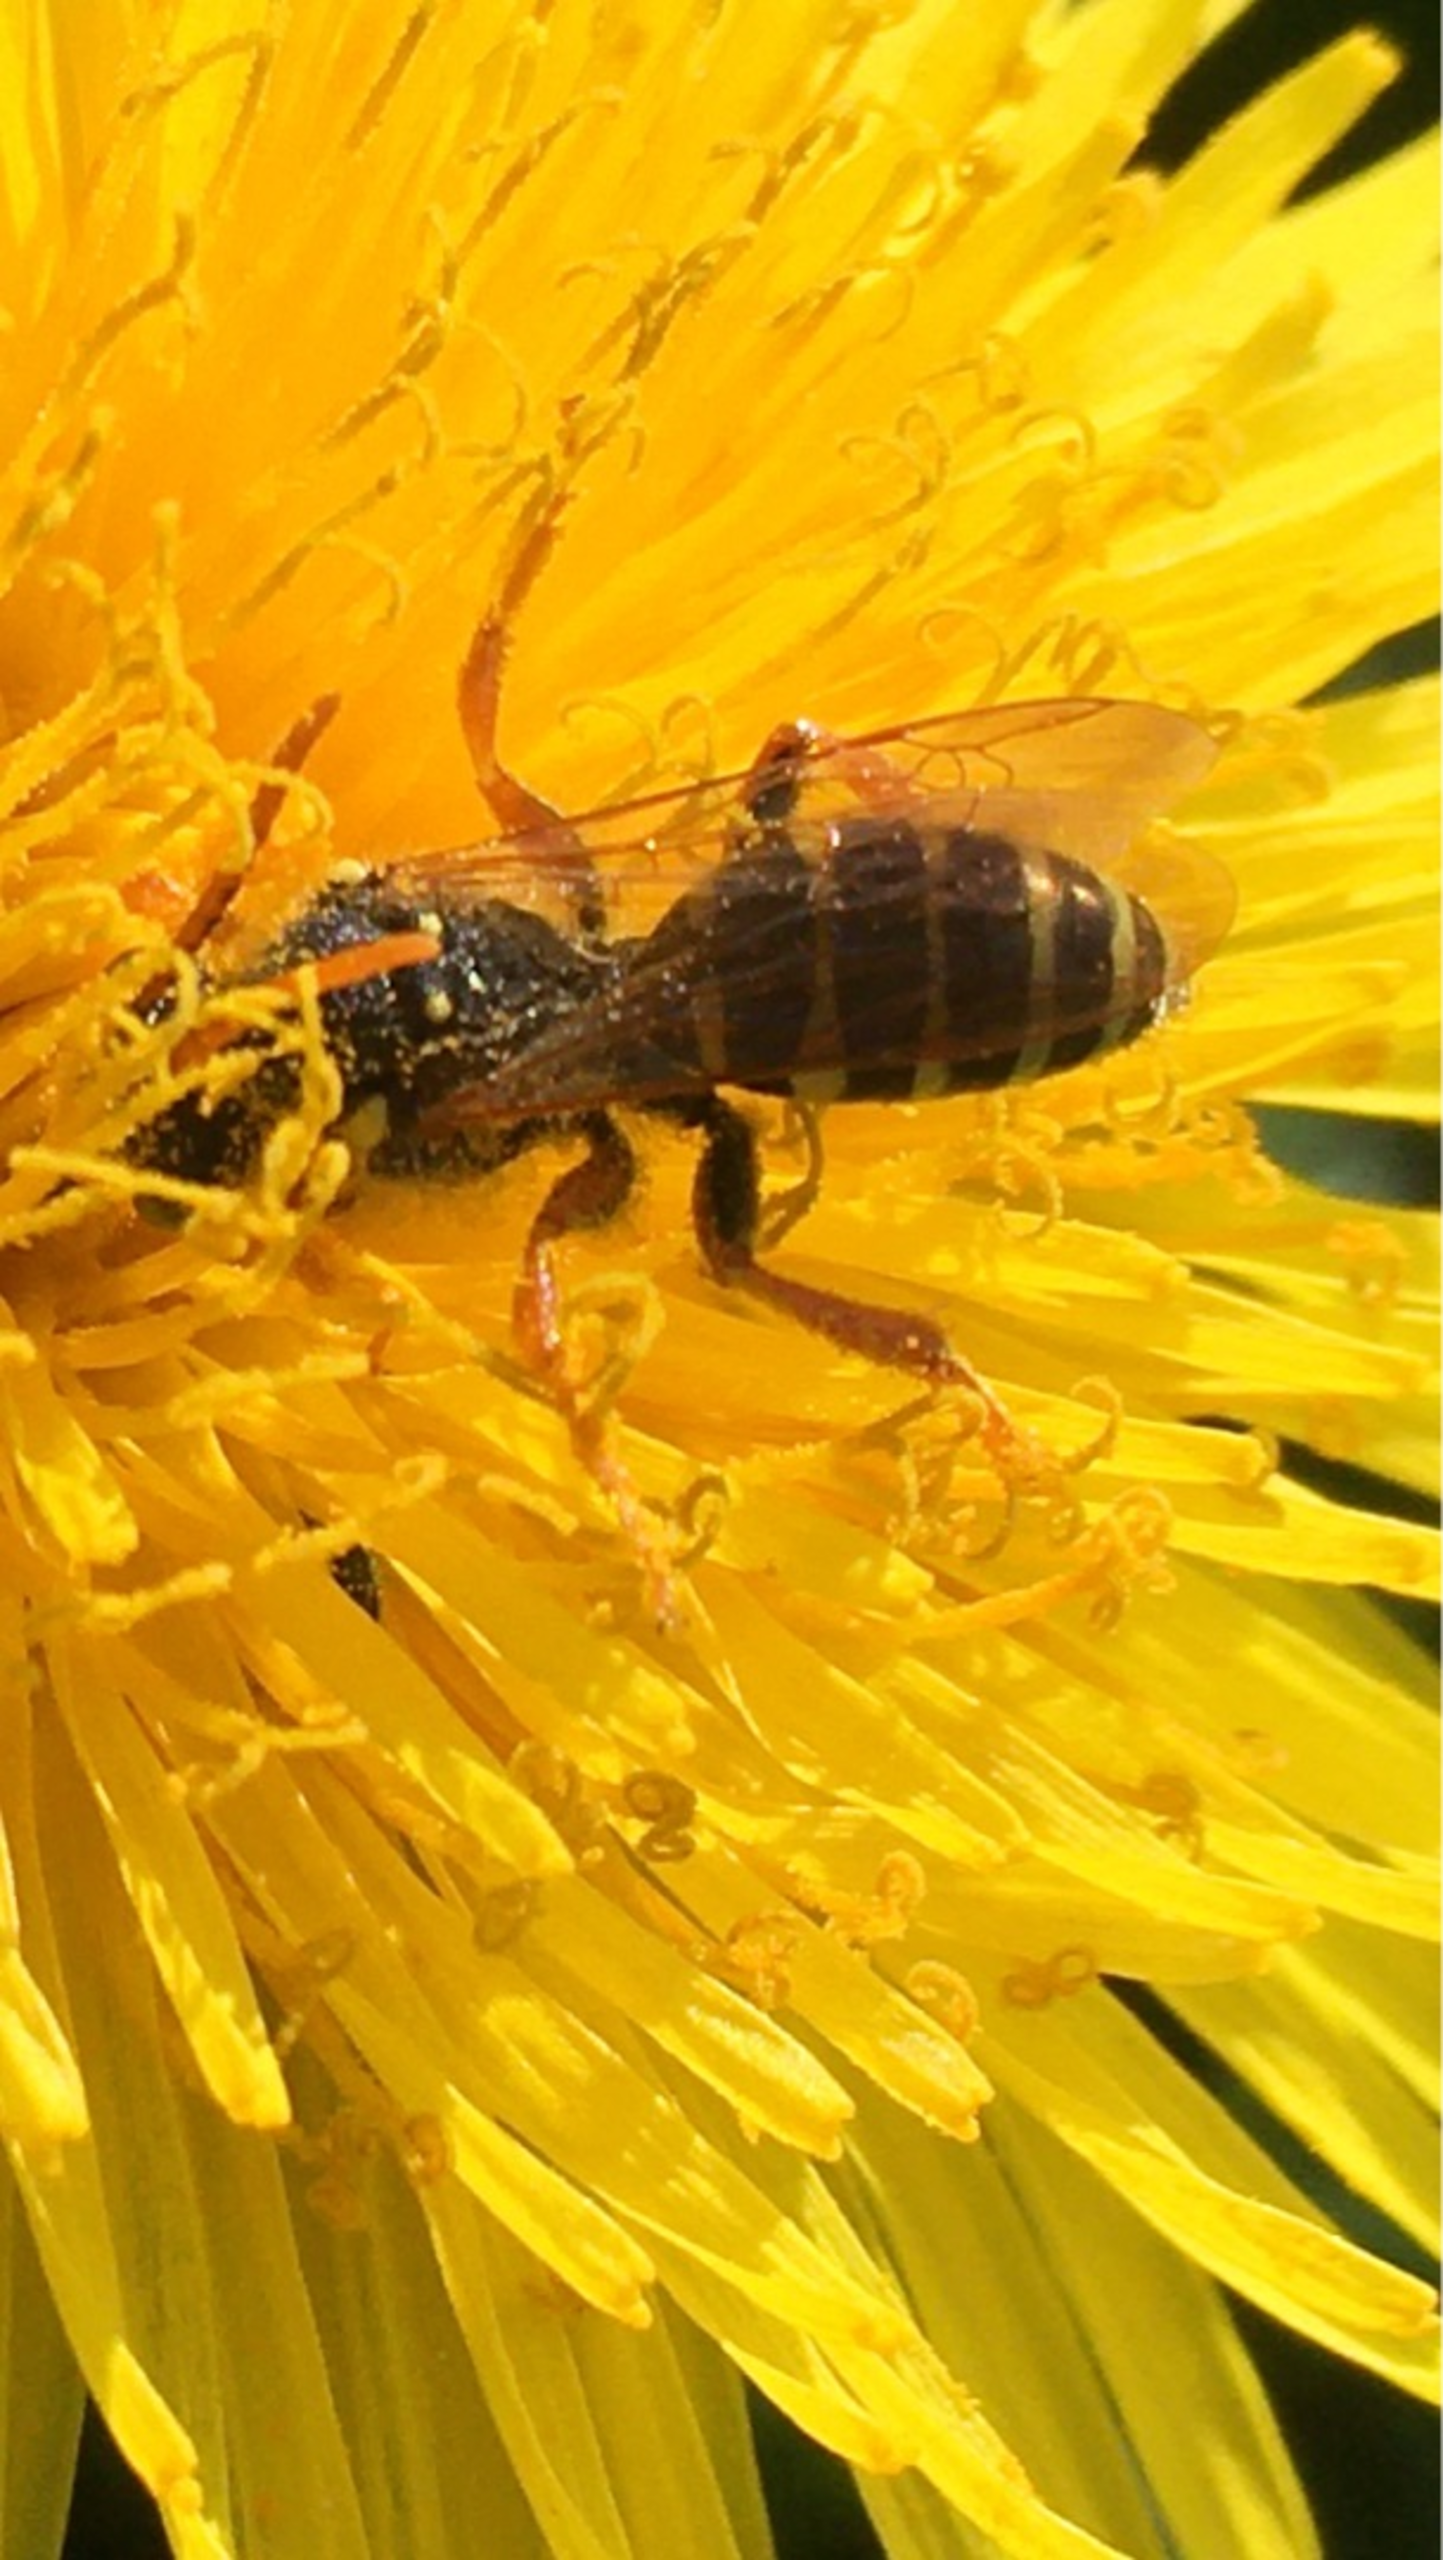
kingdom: Animalia
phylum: Arthropoda
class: Insecta
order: Hymenoptera
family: Apidae
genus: Nomada
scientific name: Nomada
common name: Hvepsebier
